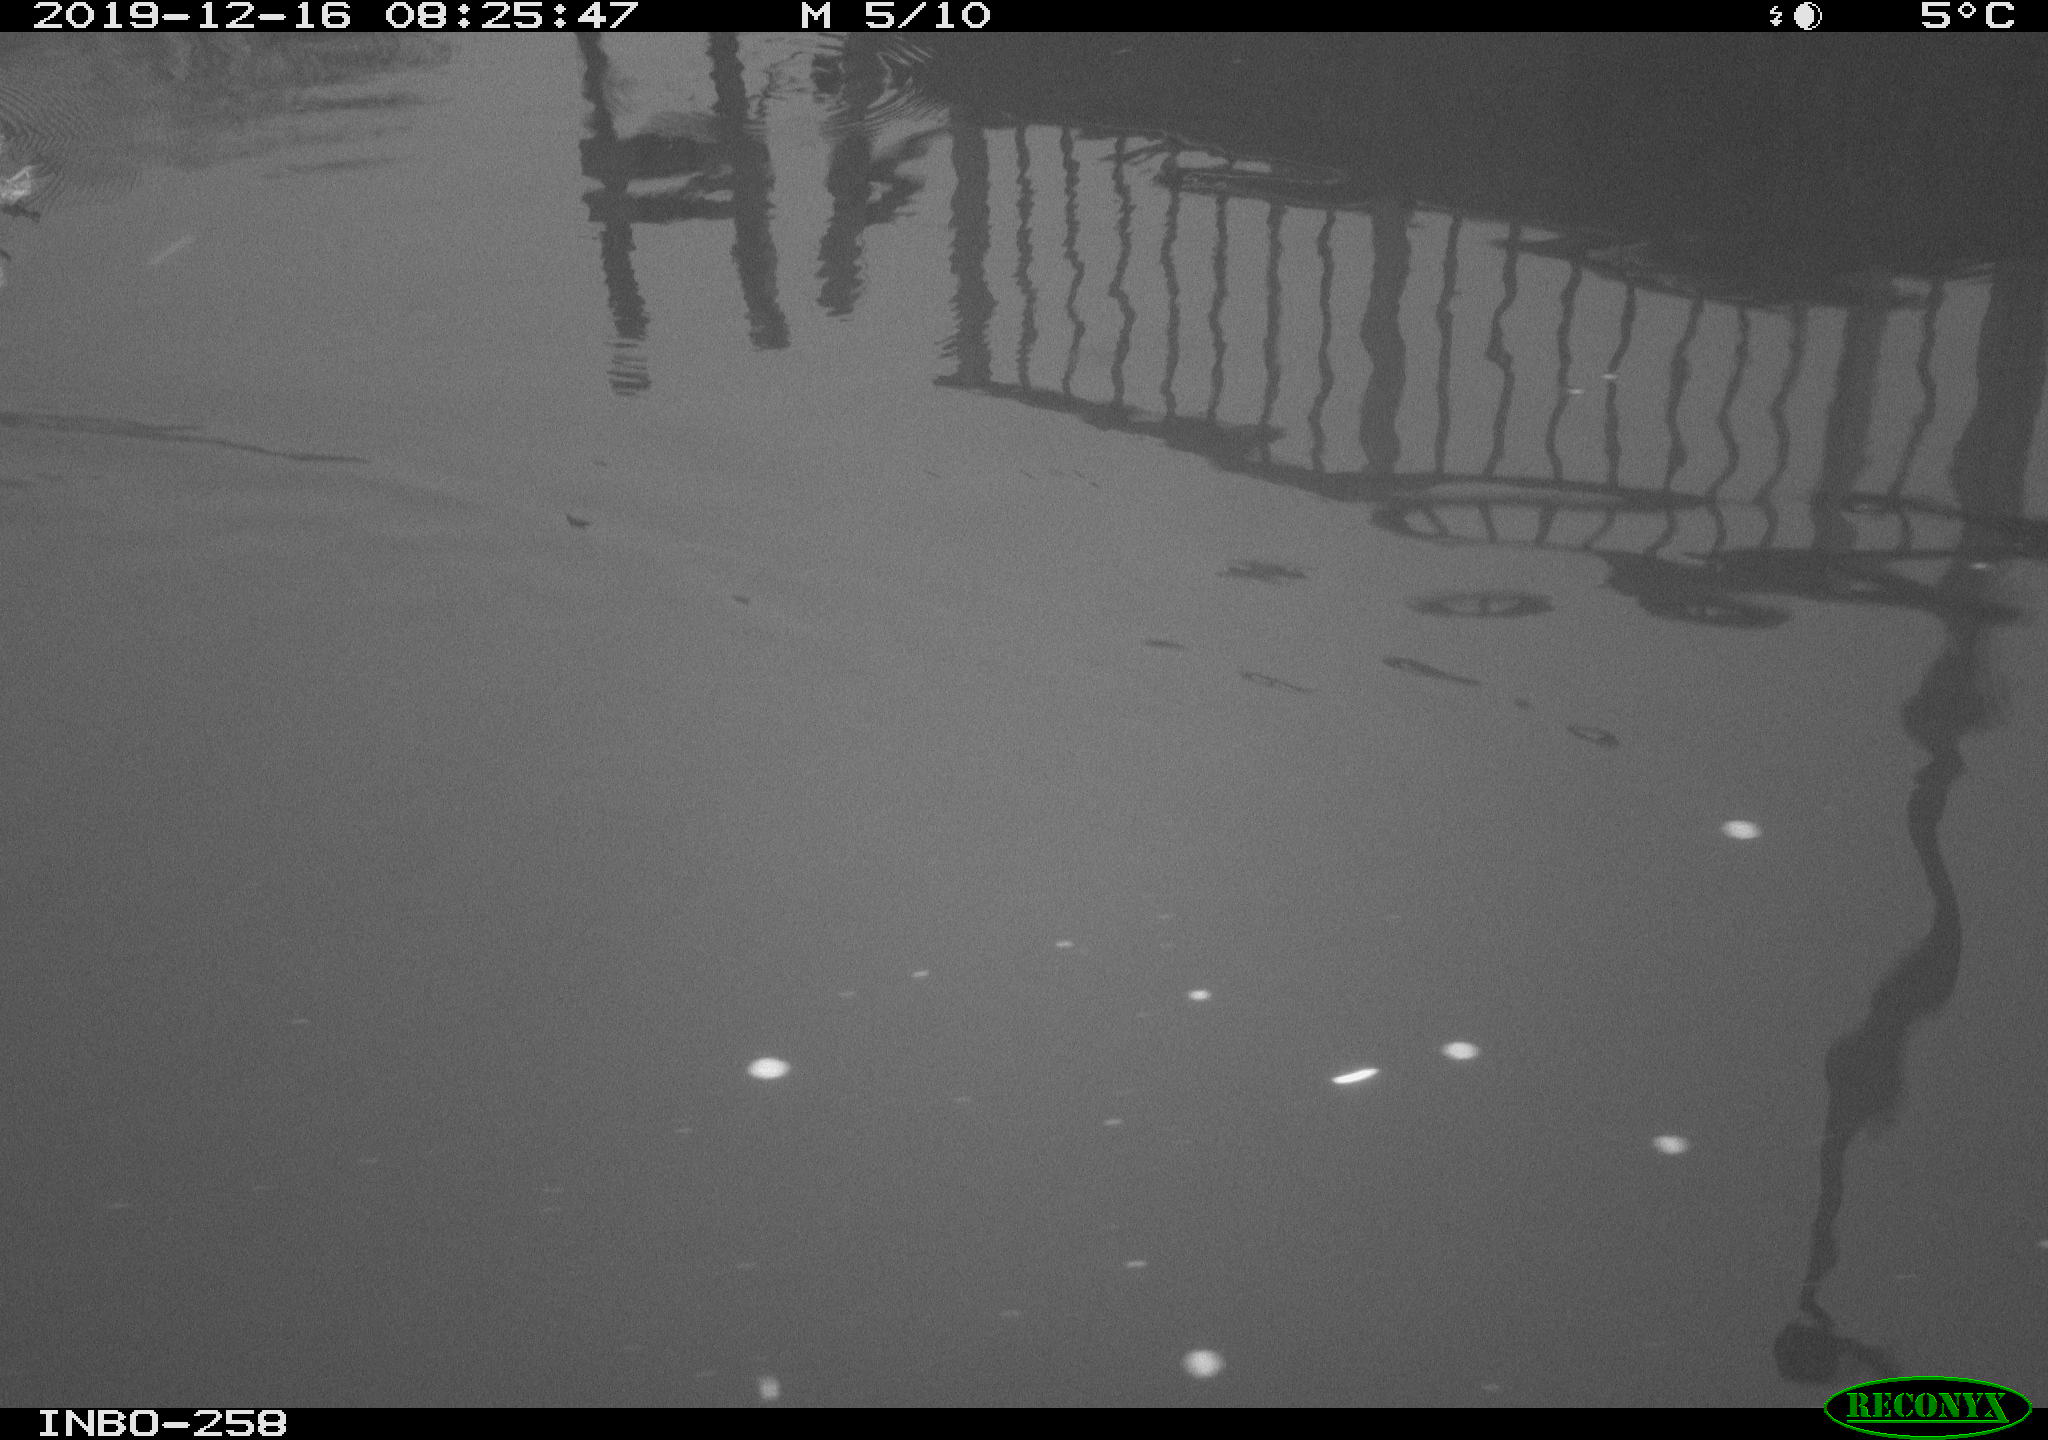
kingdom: Animalia
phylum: Chordata
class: Aves
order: Gruiformes
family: Rallidae
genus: Gallinula
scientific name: Gallinula chloropus
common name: Common moorhen
